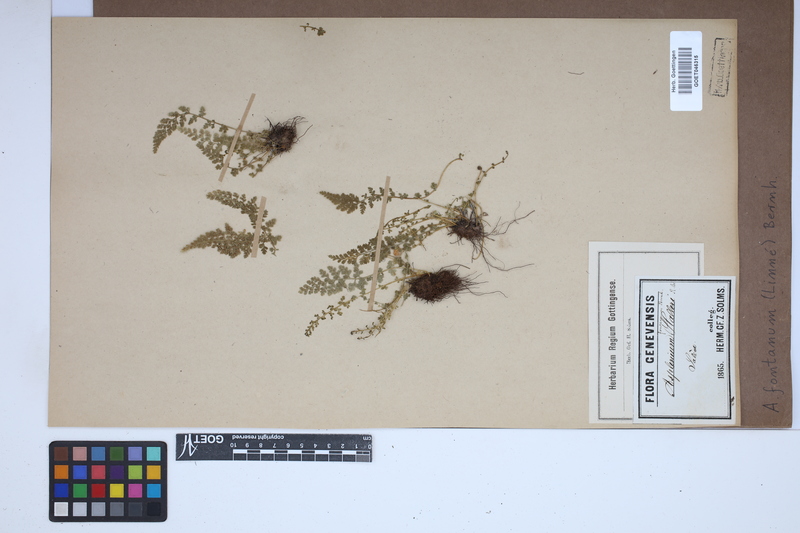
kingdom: Plantae
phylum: Tracheophyta
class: Polypodiopsida
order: Polypodiales
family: Aspleniaceae
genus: Asplenium
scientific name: Asplenium fontanum
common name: Fountain spleenwort
